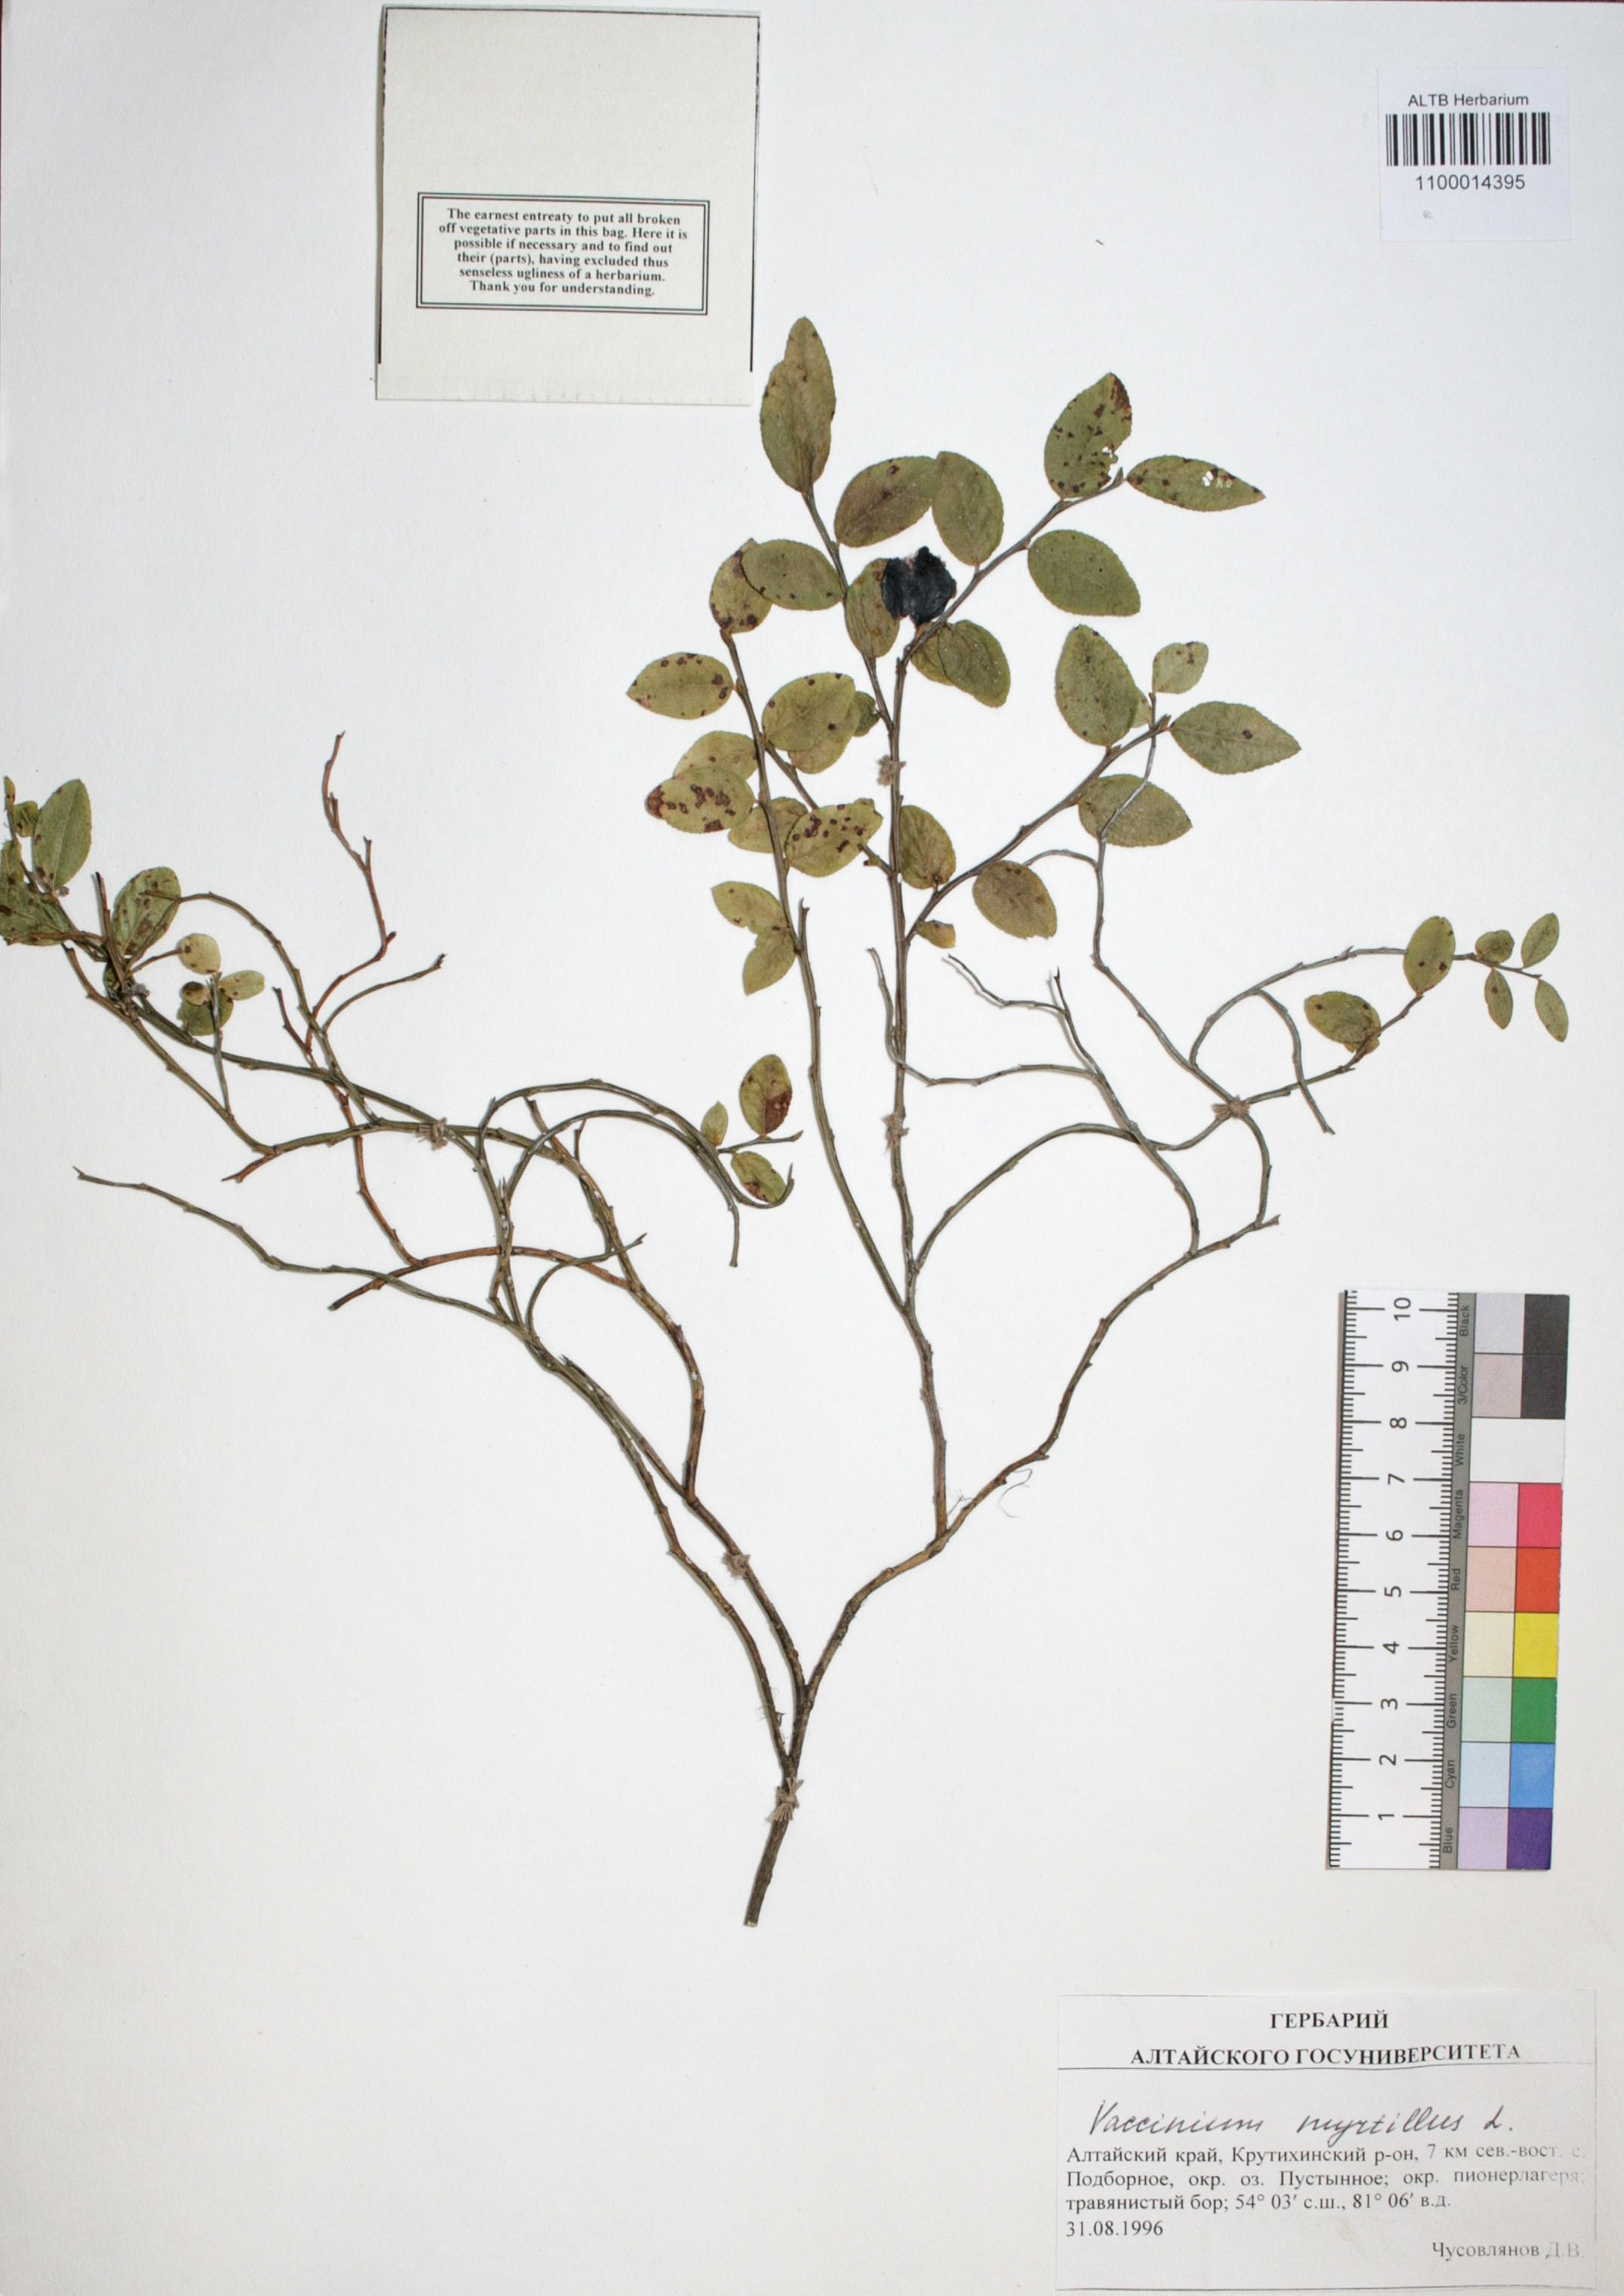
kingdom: Plantae
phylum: Tracheophyta
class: Magnoliopsida
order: Ericales
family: Ericaceae
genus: Vaccinium
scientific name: Vaccinium myrtillus
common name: Bilberry
